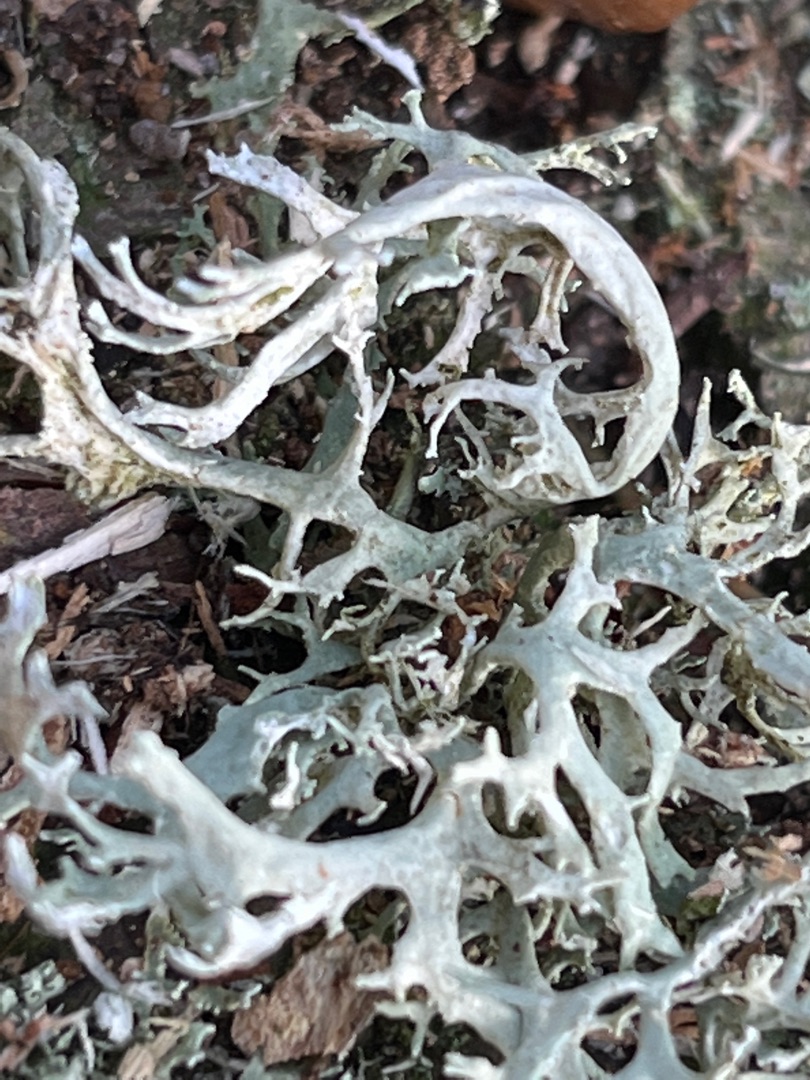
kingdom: Fungi
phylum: Ascomycota
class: Lecanoromycetes
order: Lecanorales
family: Parmeliaceae
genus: Evernia
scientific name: Evernia prunastri
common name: Almindelig slåenlav
